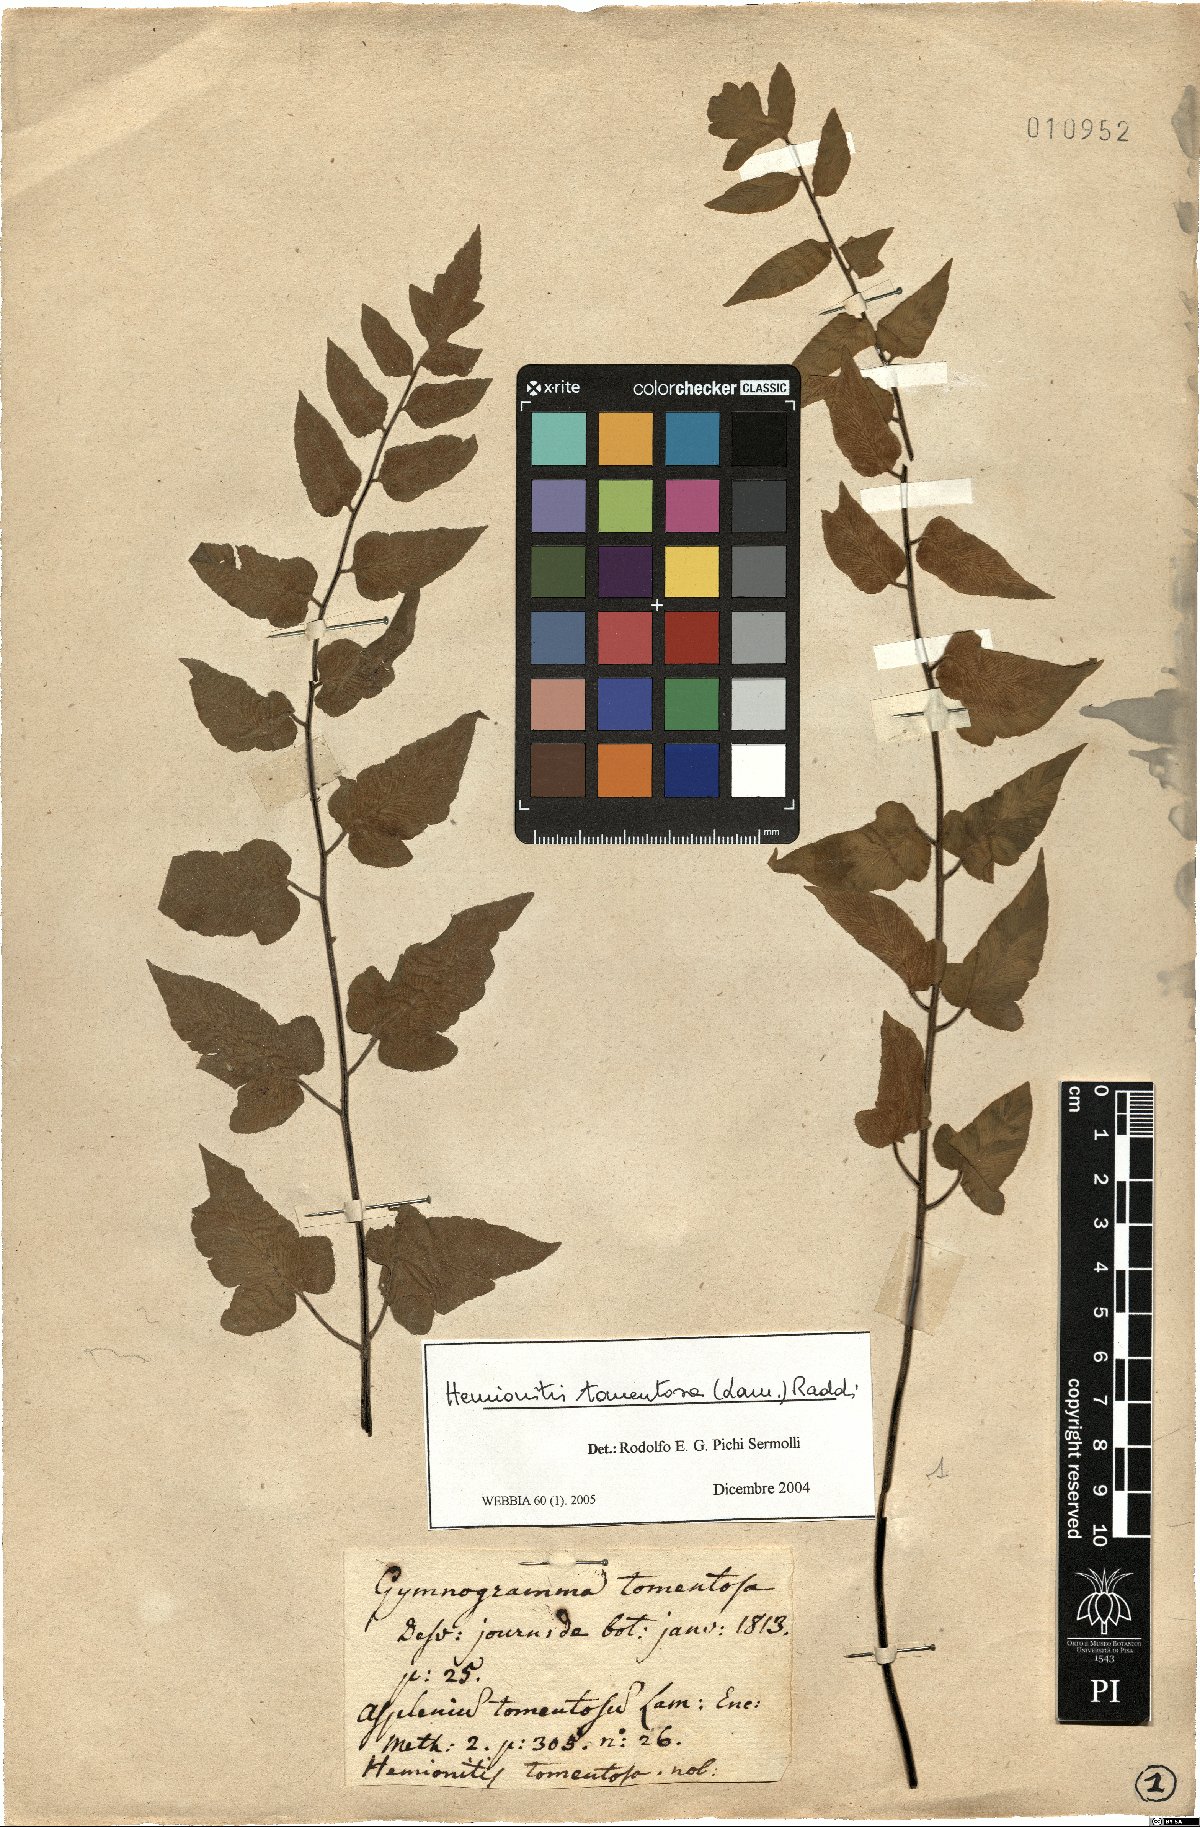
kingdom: Plantae
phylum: Tracheophyta
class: Polypodiopsida
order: Polypodiales
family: Pteridaceae
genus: Hemionitis
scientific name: Hemionitis tomentosa
